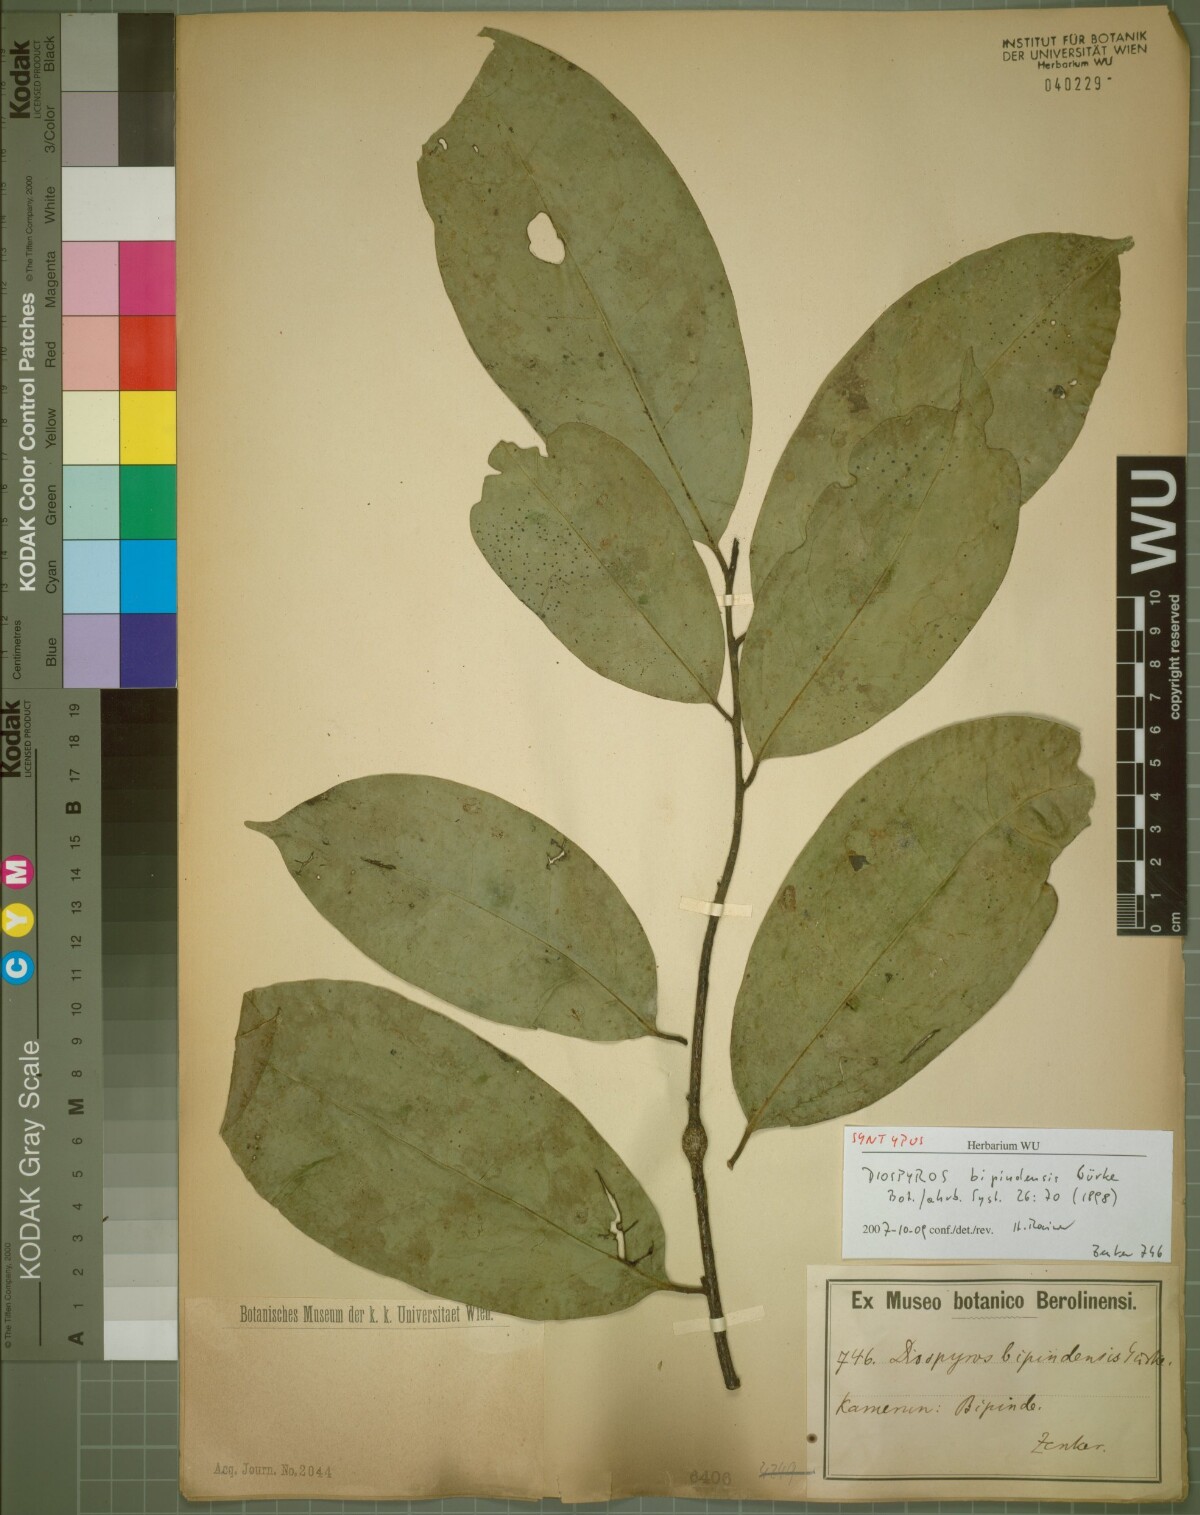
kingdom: Plantae
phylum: Tracheophyta
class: Magnoliopsida
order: Ericales
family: Ebenaceae
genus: Diospyros
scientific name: Diospyros bipindensis
